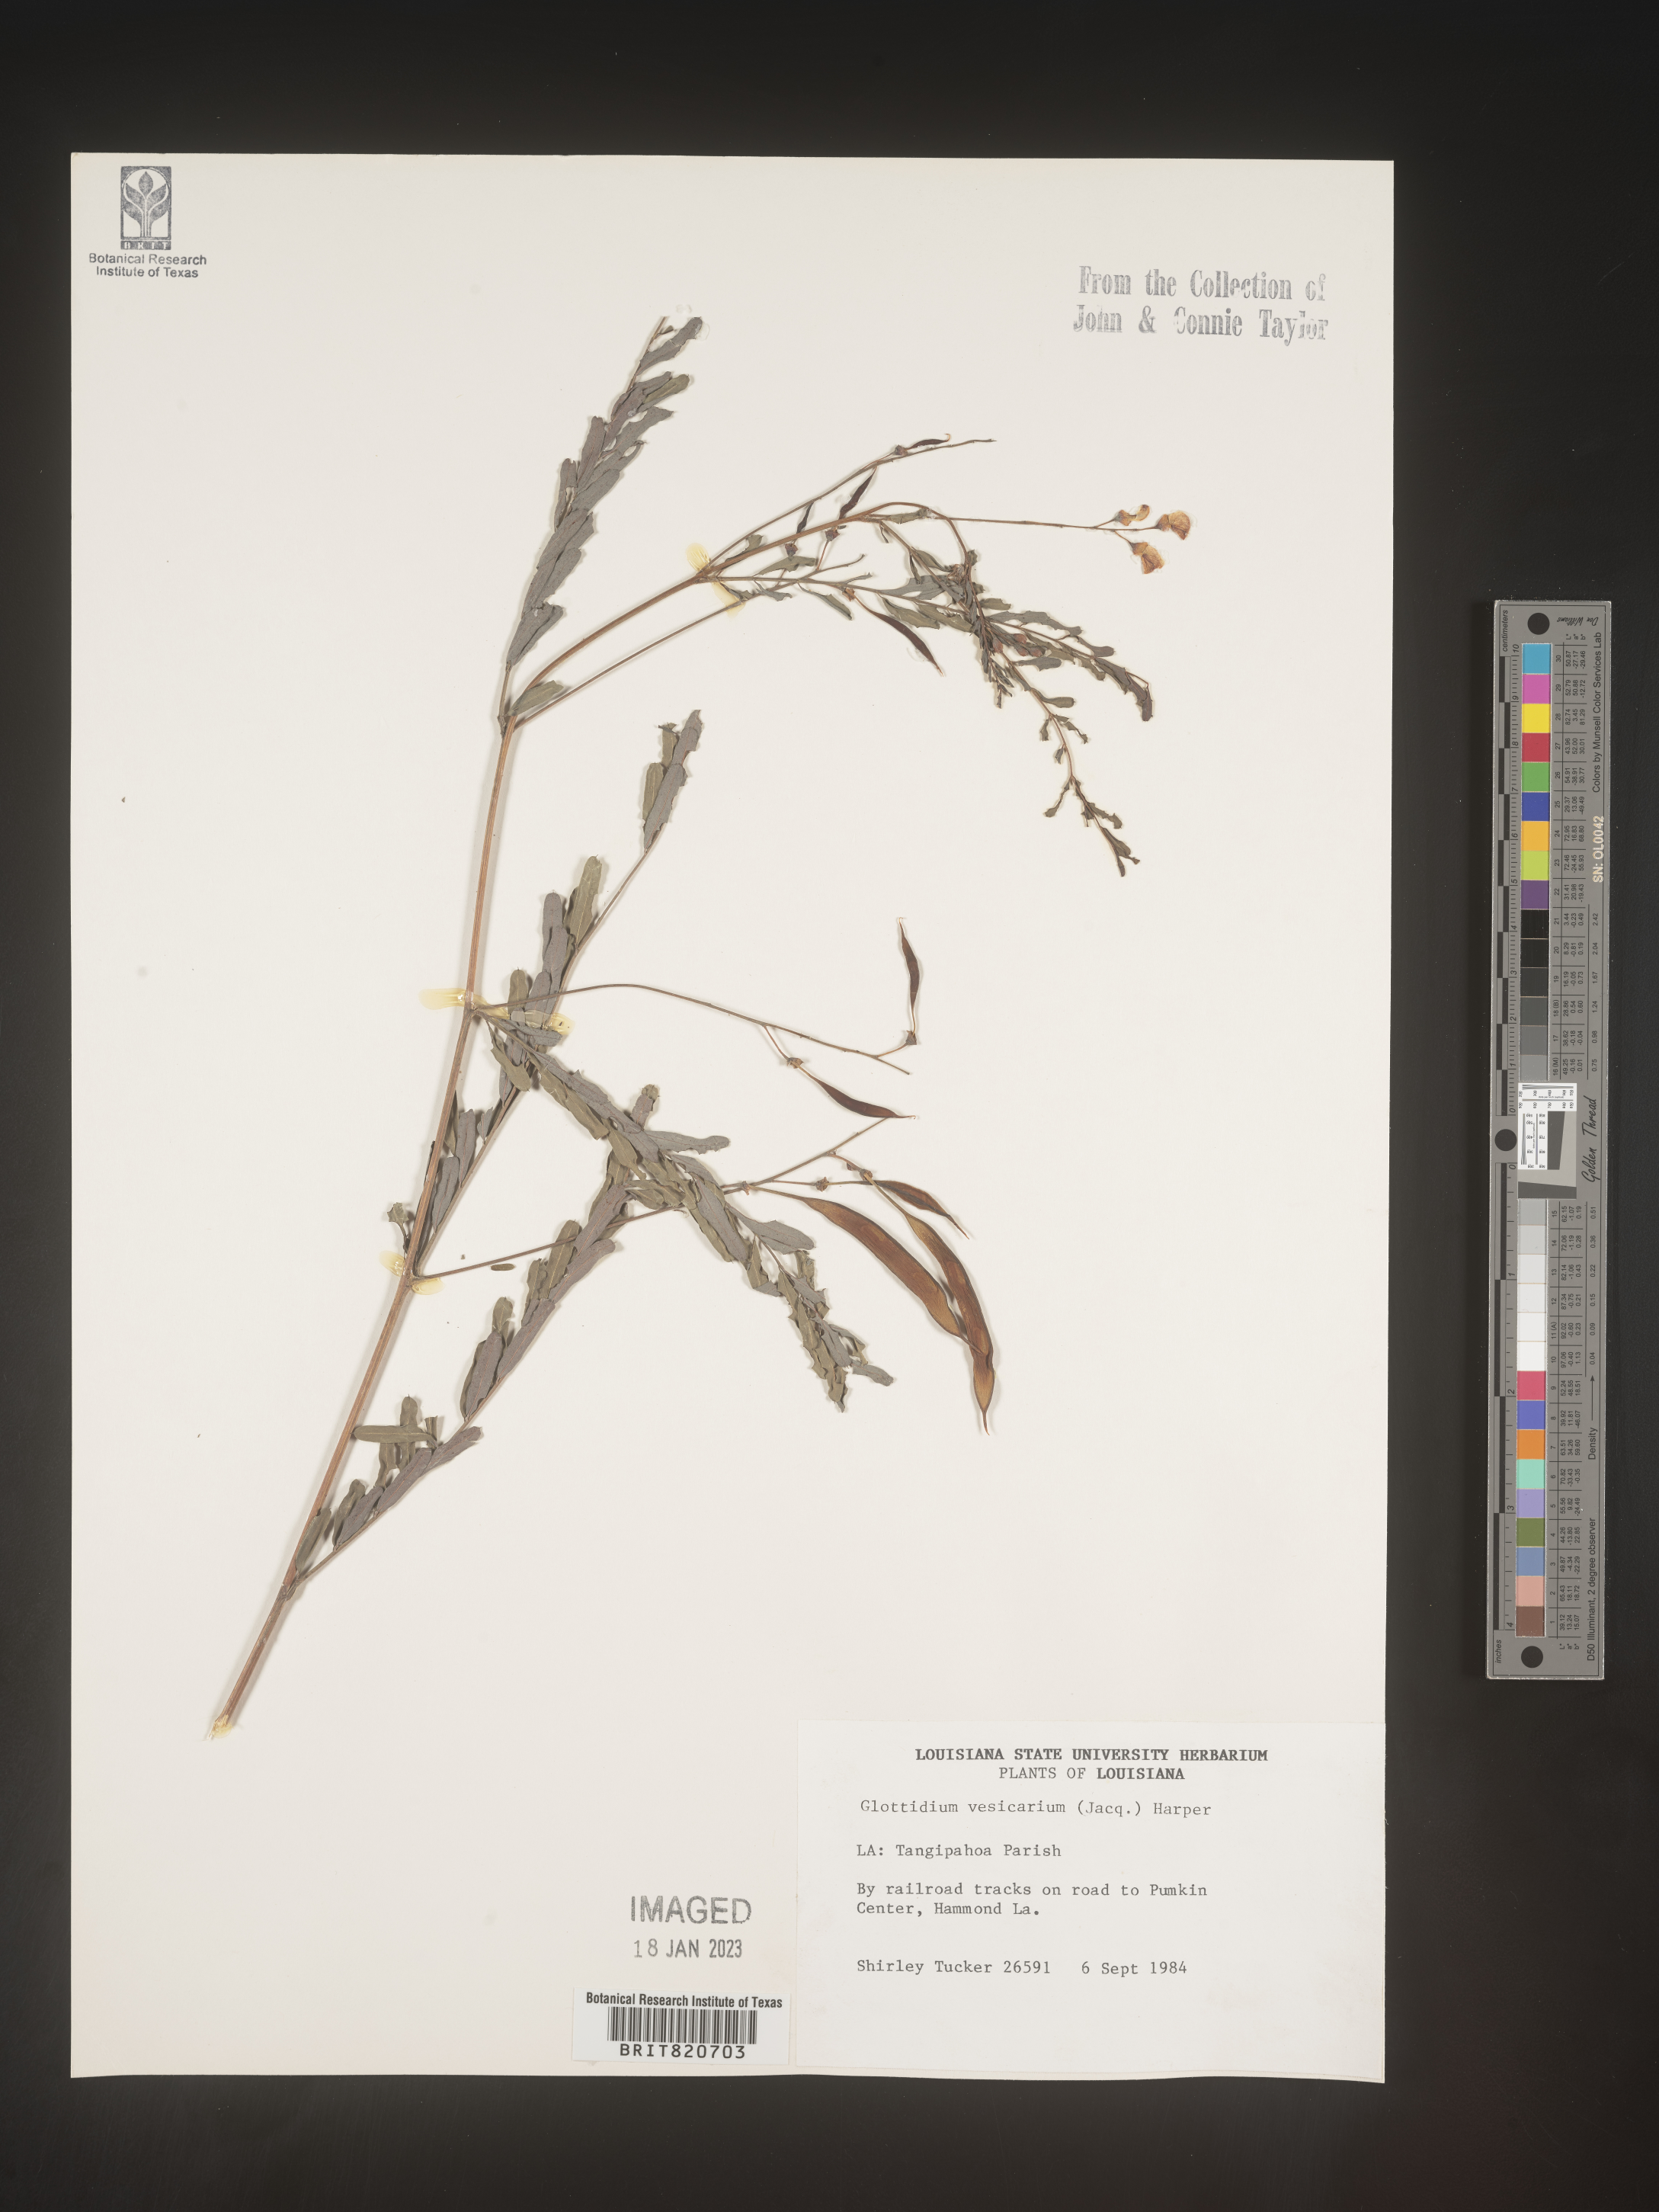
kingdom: Plantae
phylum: Tracheophyta
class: Magnoliopsida
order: Fabales
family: Fabaceae
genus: Sesbania
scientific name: Sesbania vesicaria
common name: Bagpod
